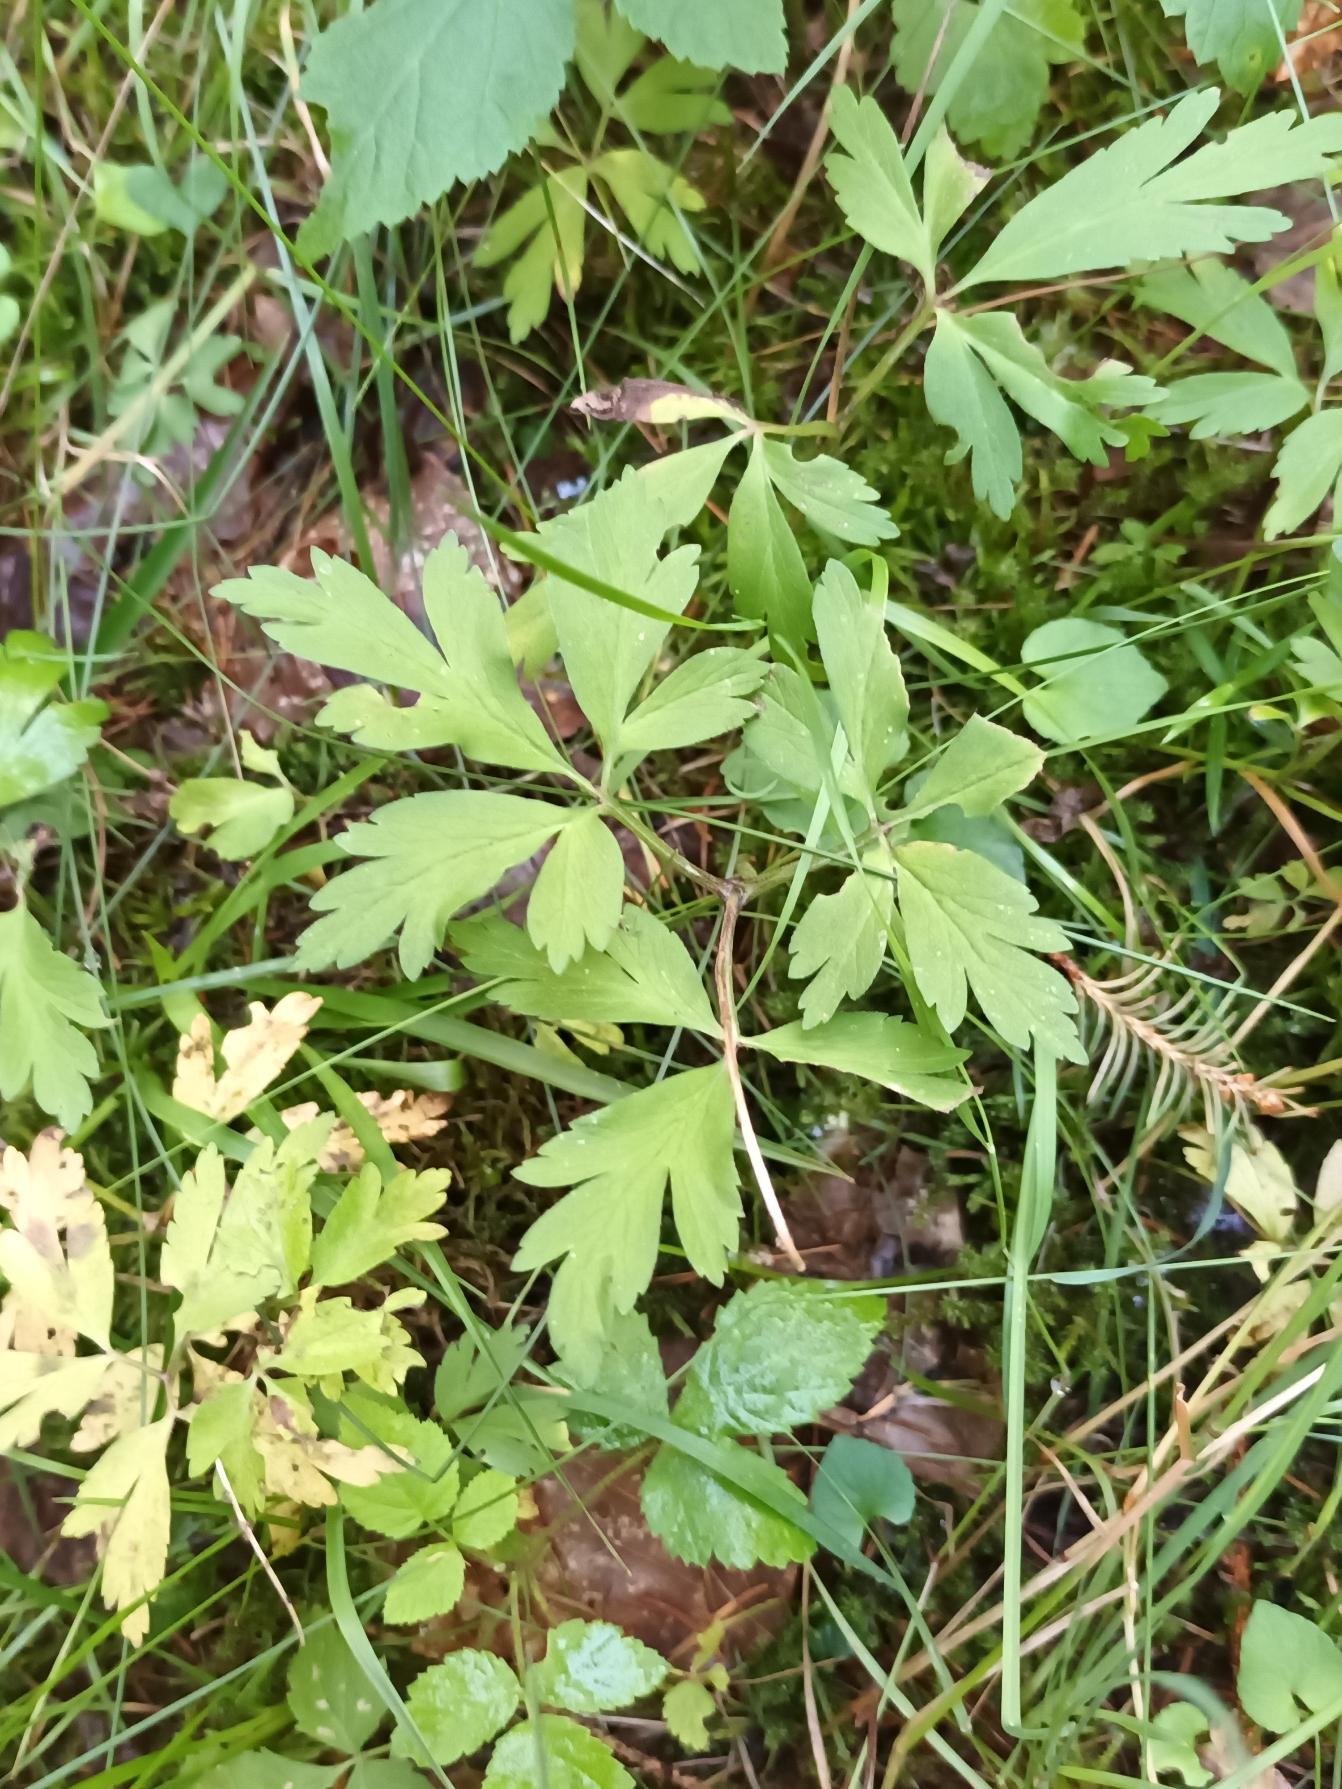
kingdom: Plantae
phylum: Tracheophyta
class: Magnoliopsida
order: Ranunculales
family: Ranunculaceae
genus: Anemone
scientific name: Anemone nemorosa
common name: Hvid anemone
